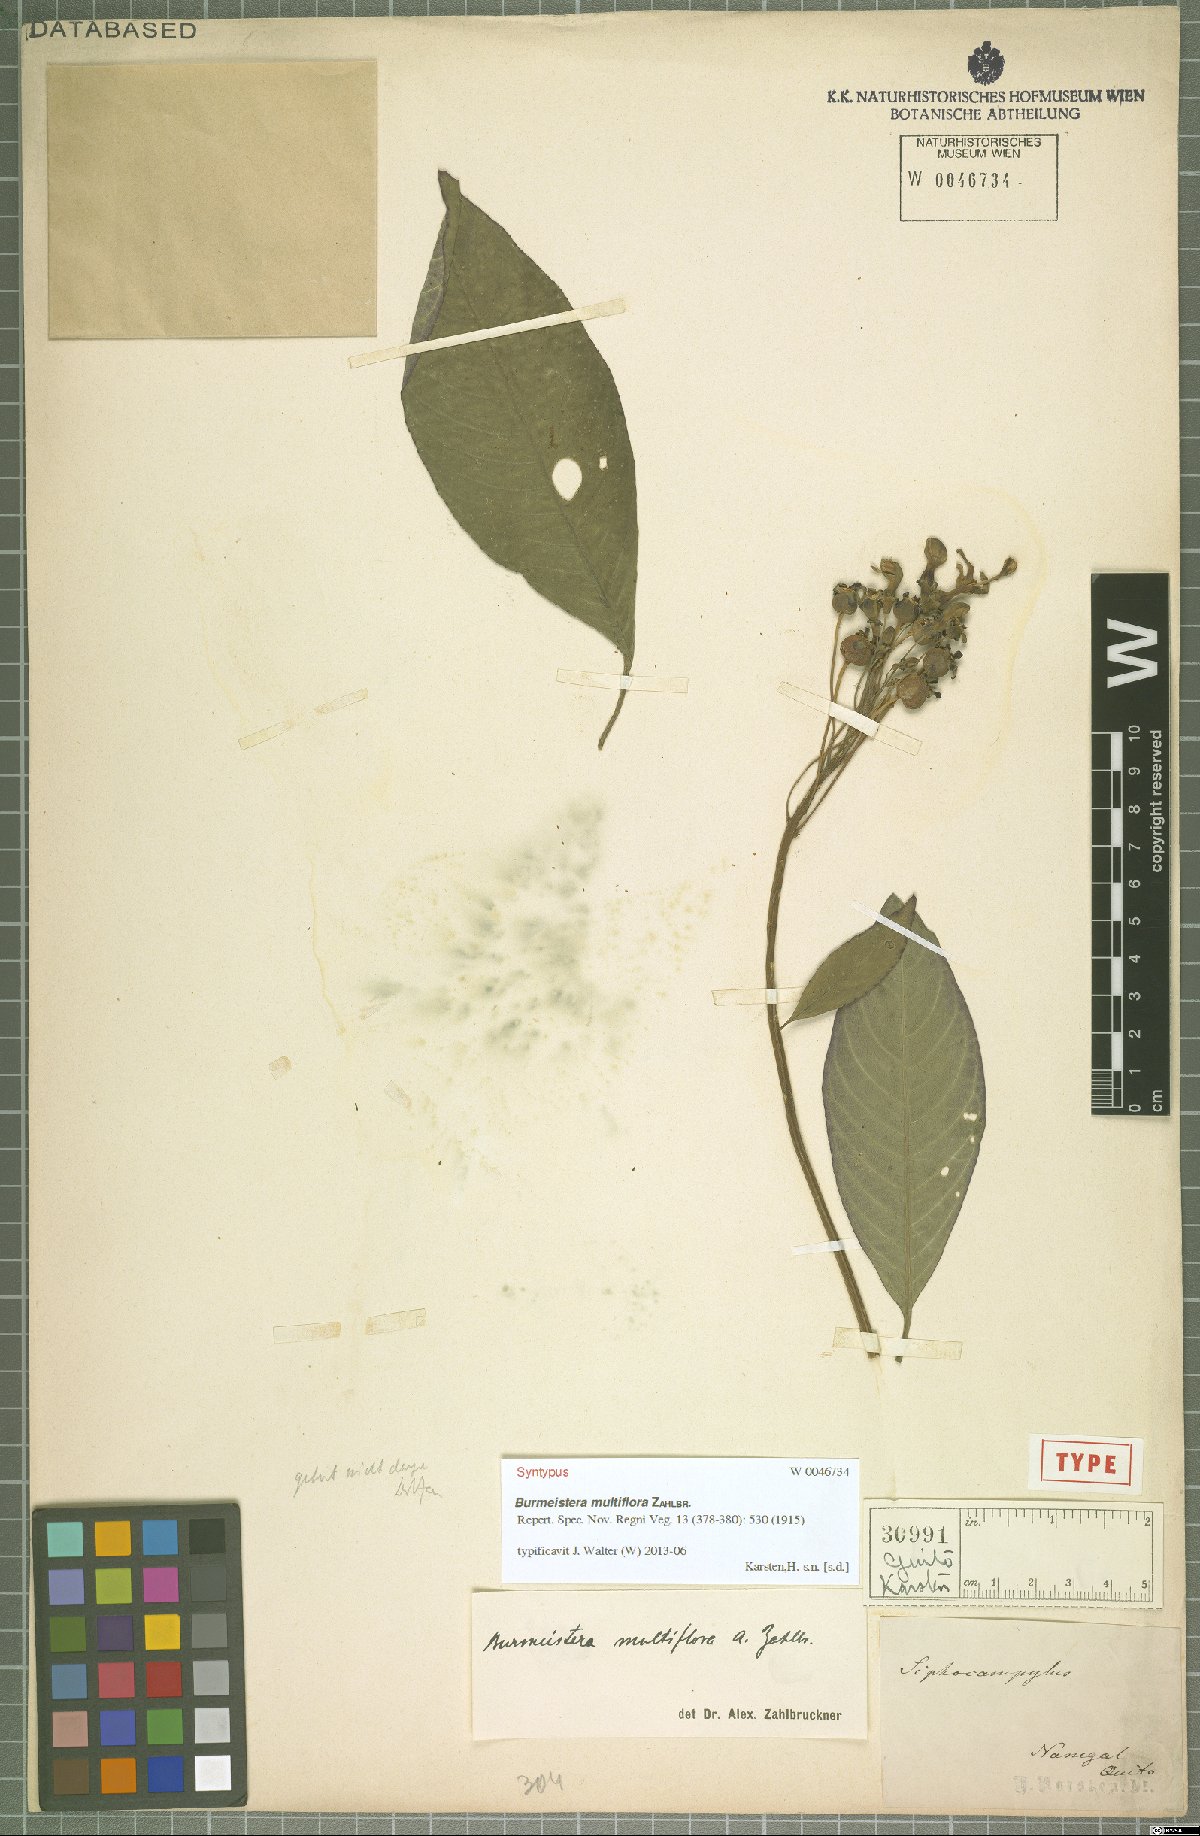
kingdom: Plantae
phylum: Tracheophyta
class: Magnoliopsida
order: Asterales
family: Campanulaceae
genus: Burmeistera
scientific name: Burmeistera multiflora
